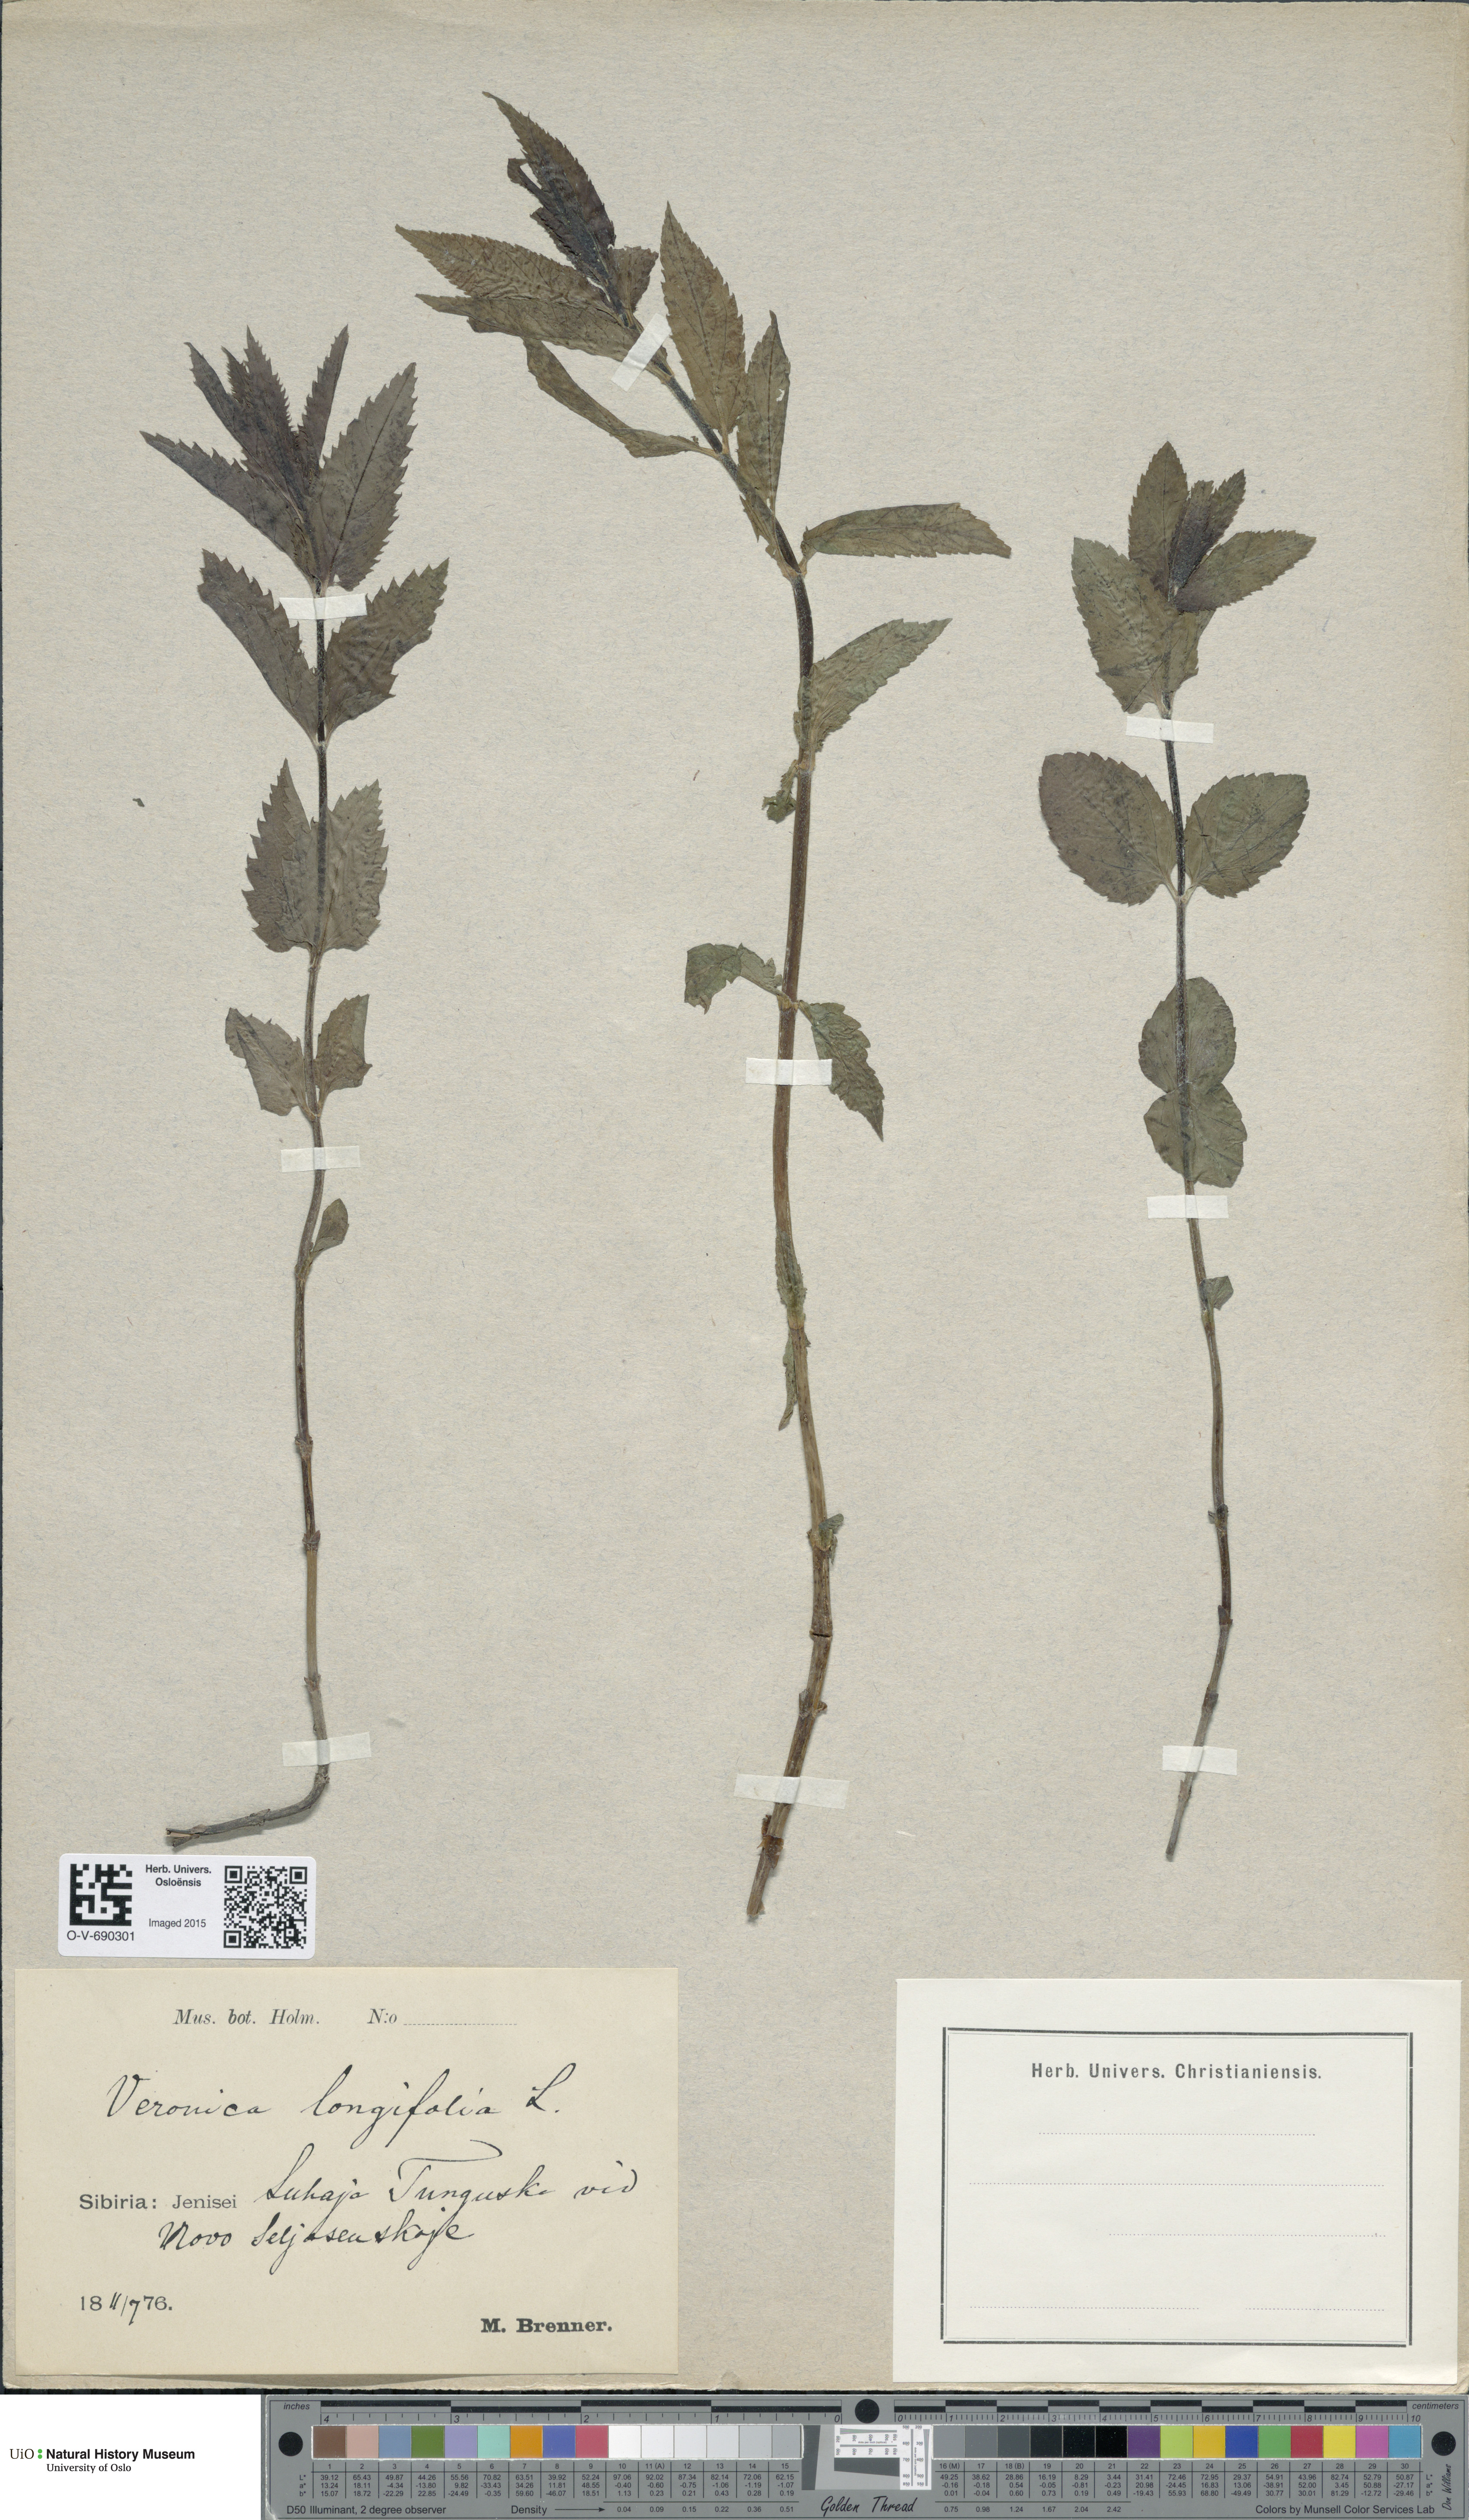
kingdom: Plantae
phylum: Tracheophyta
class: Magnoliopsida
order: Lamiales
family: Plantaginaceae
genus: Veronica
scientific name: Veronica longifolia
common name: Garden speedwell
